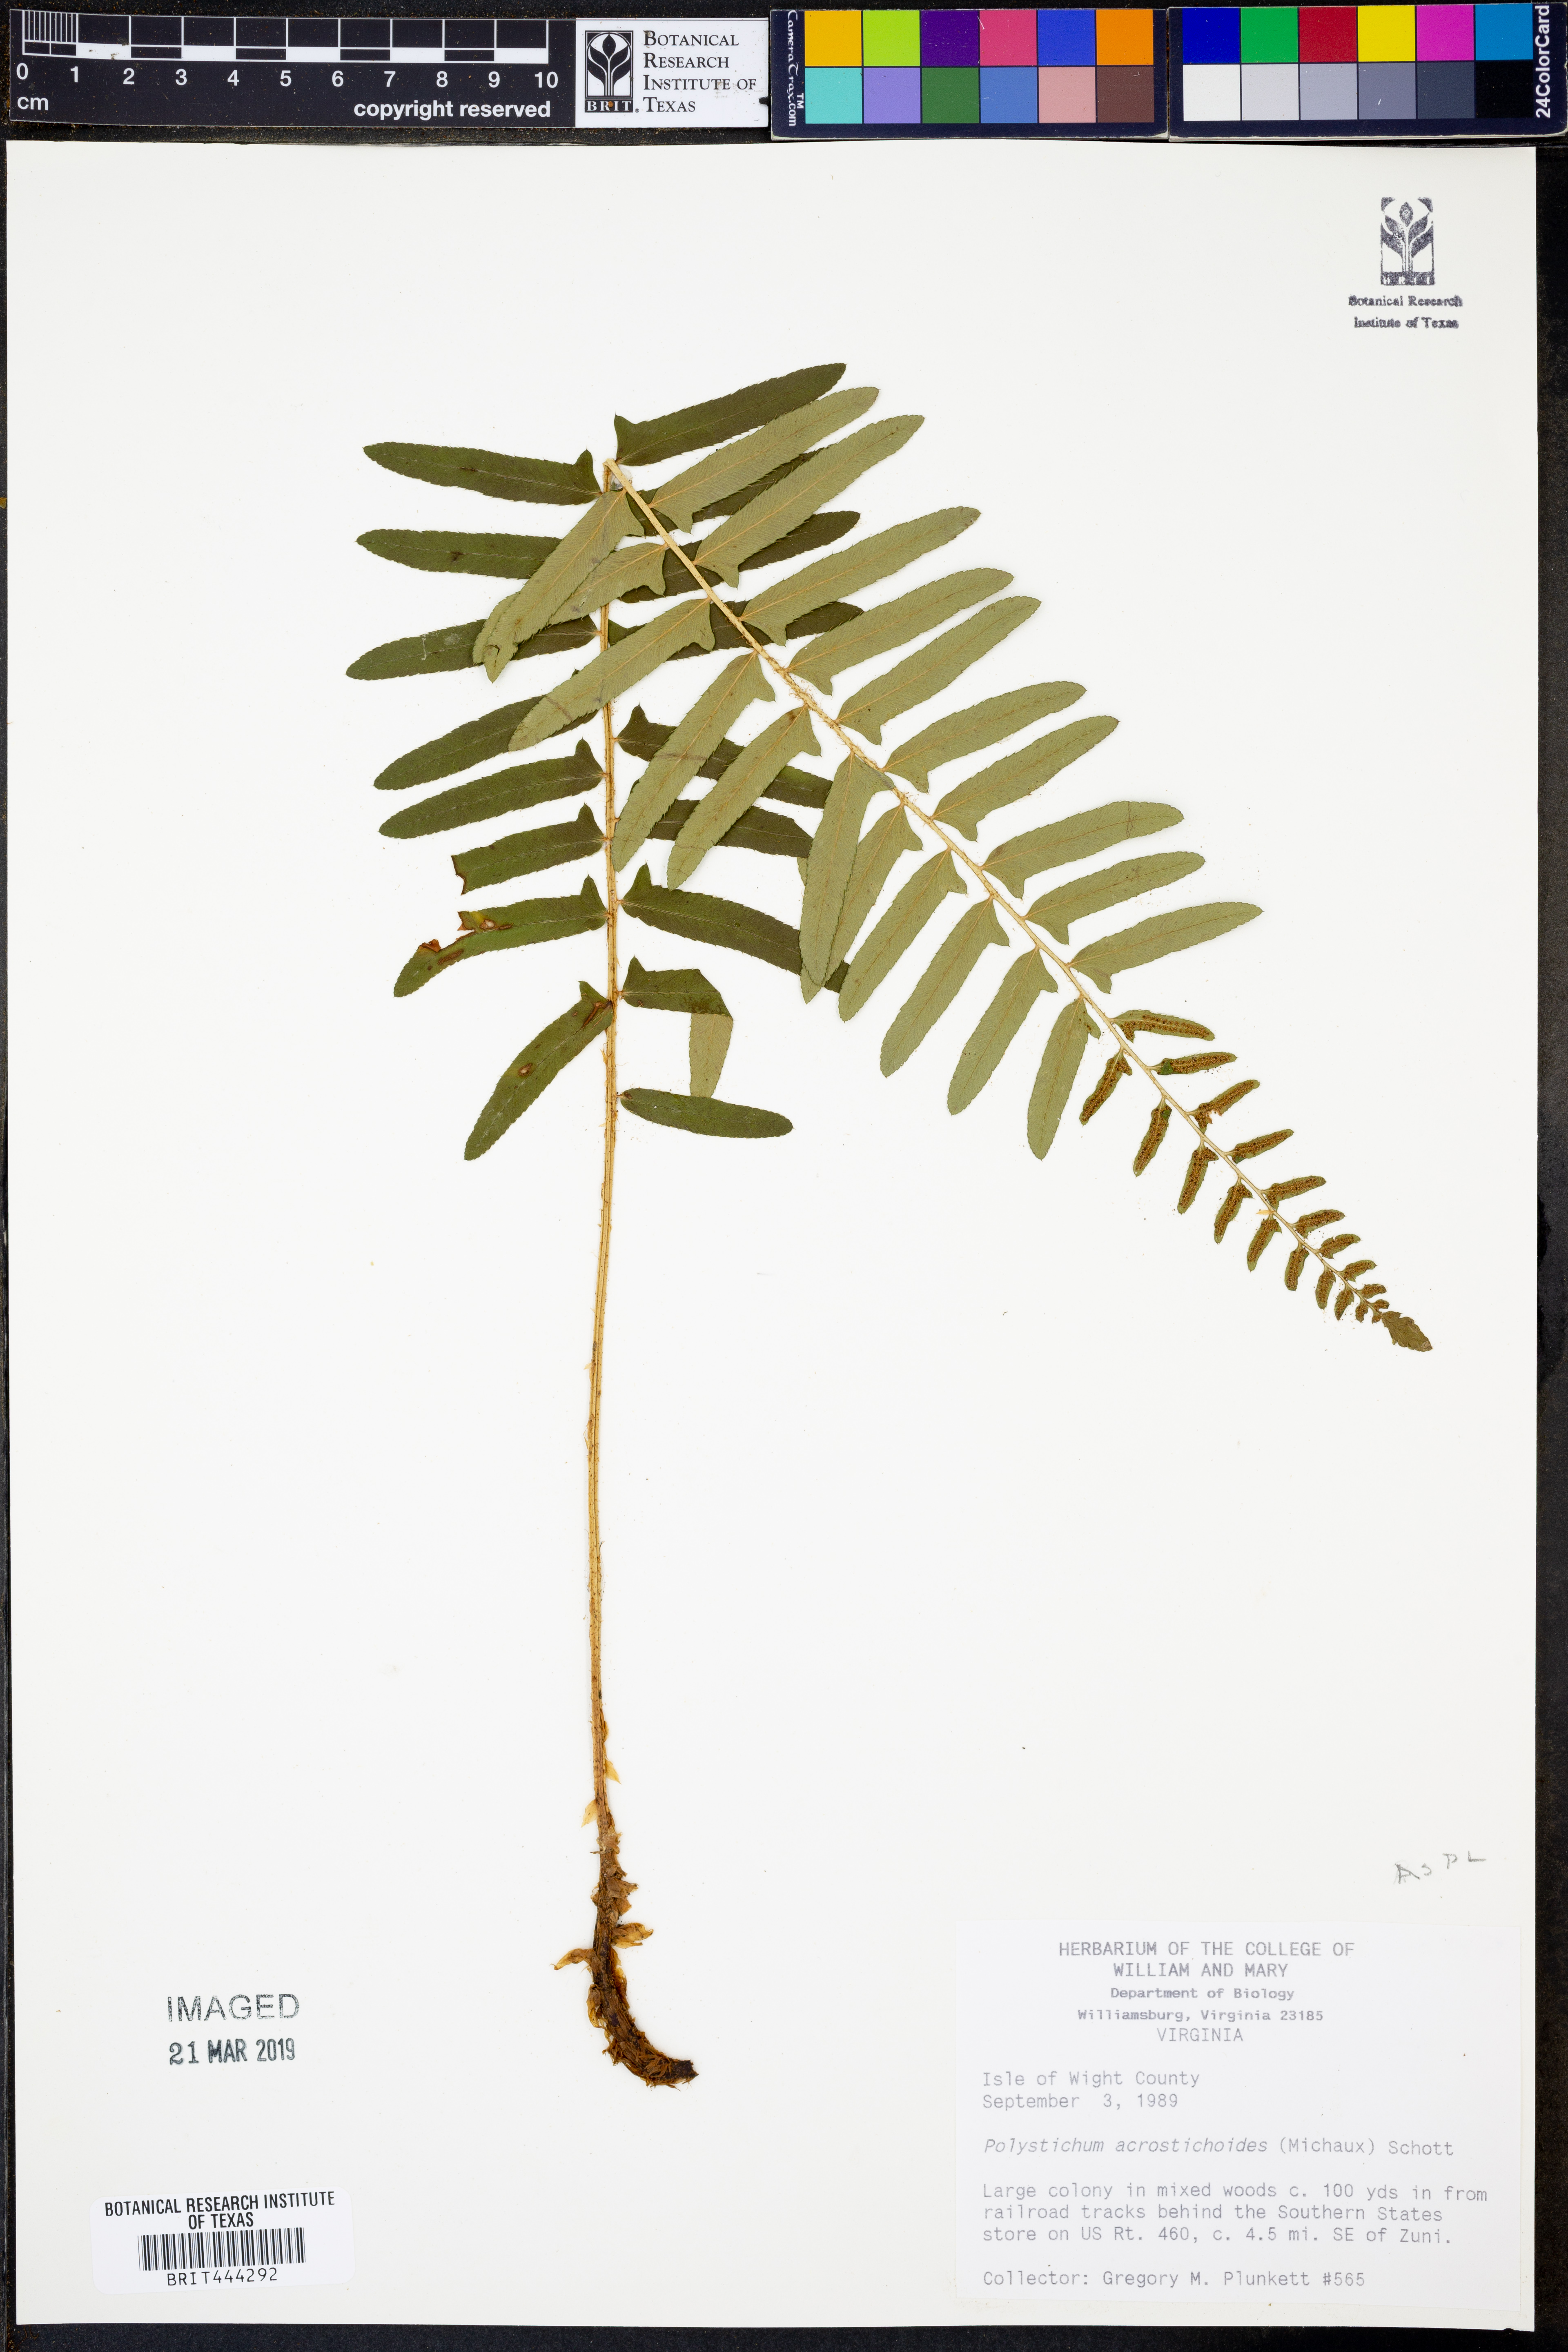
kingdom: Plantae
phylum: Tracheophyta
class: Polypodiopsida
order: Polypodiales
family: Dryopteridaceae
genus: Polystichum
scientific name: Polystichum acrostichoides
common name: Christmas fern
